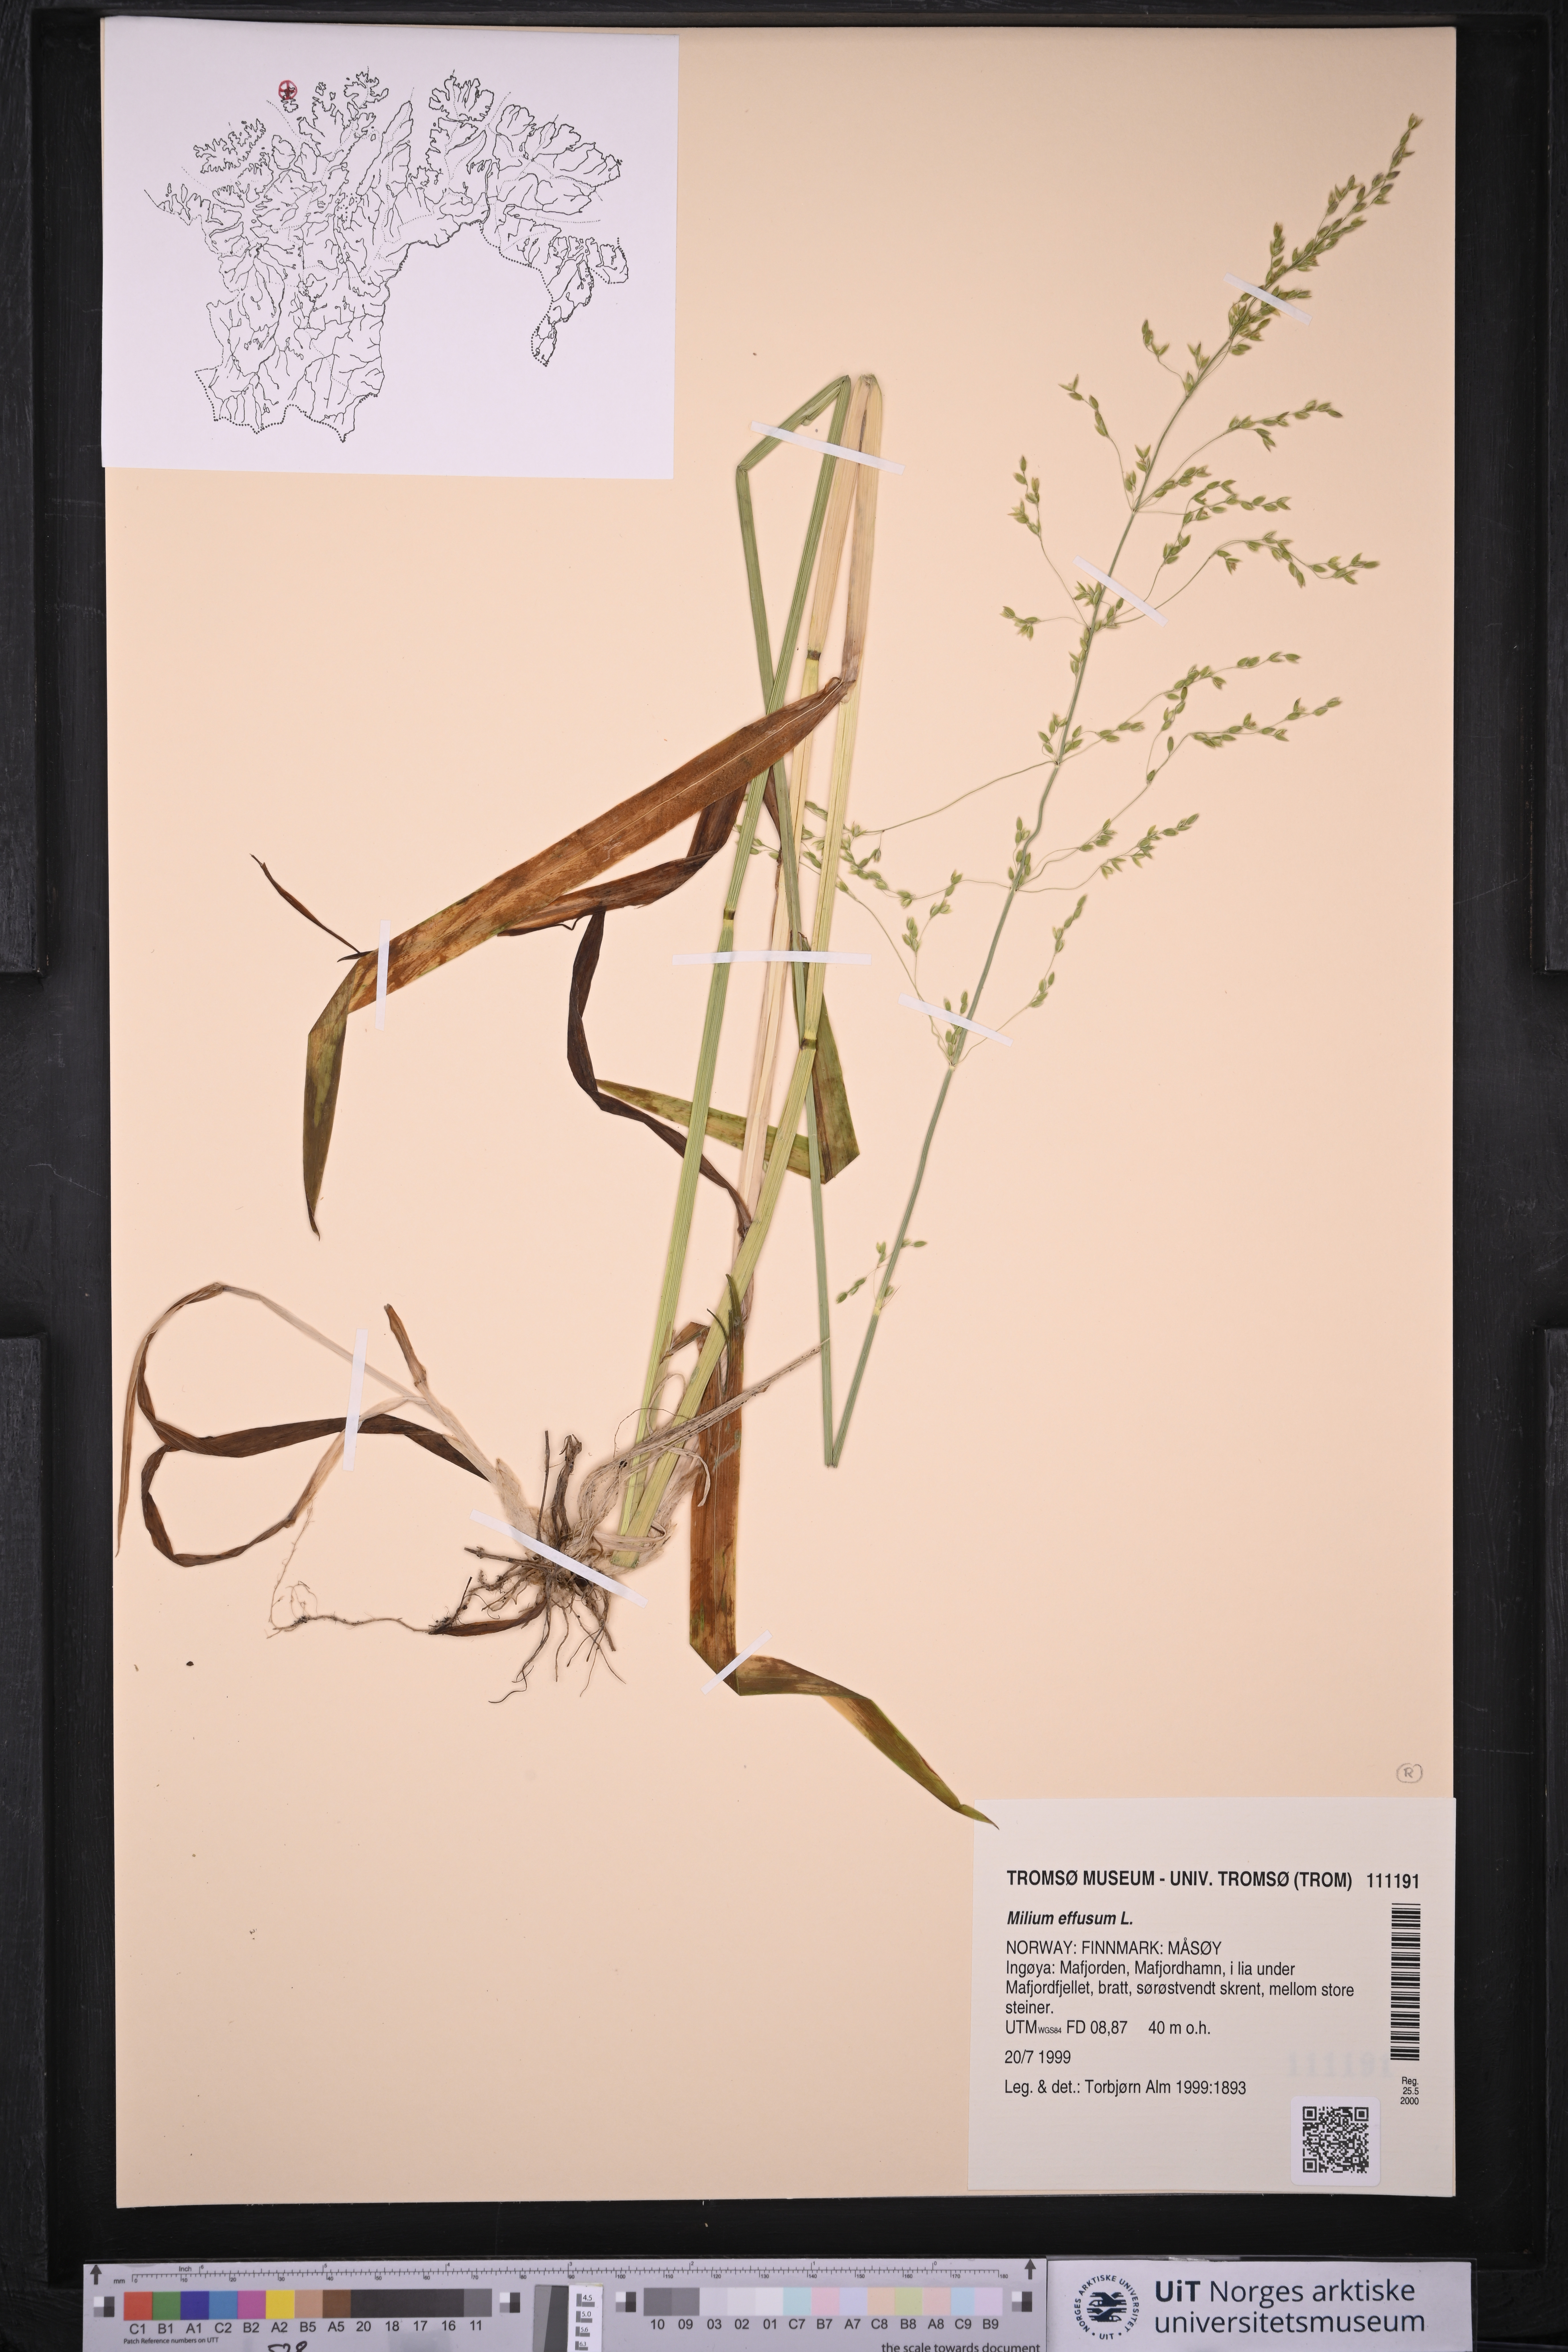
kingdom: Plantae
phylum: Tracheophyta
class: Liliopsida
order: Poales
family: Poaceae
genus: Milium
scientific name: Milium effusum
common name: Wood millet
